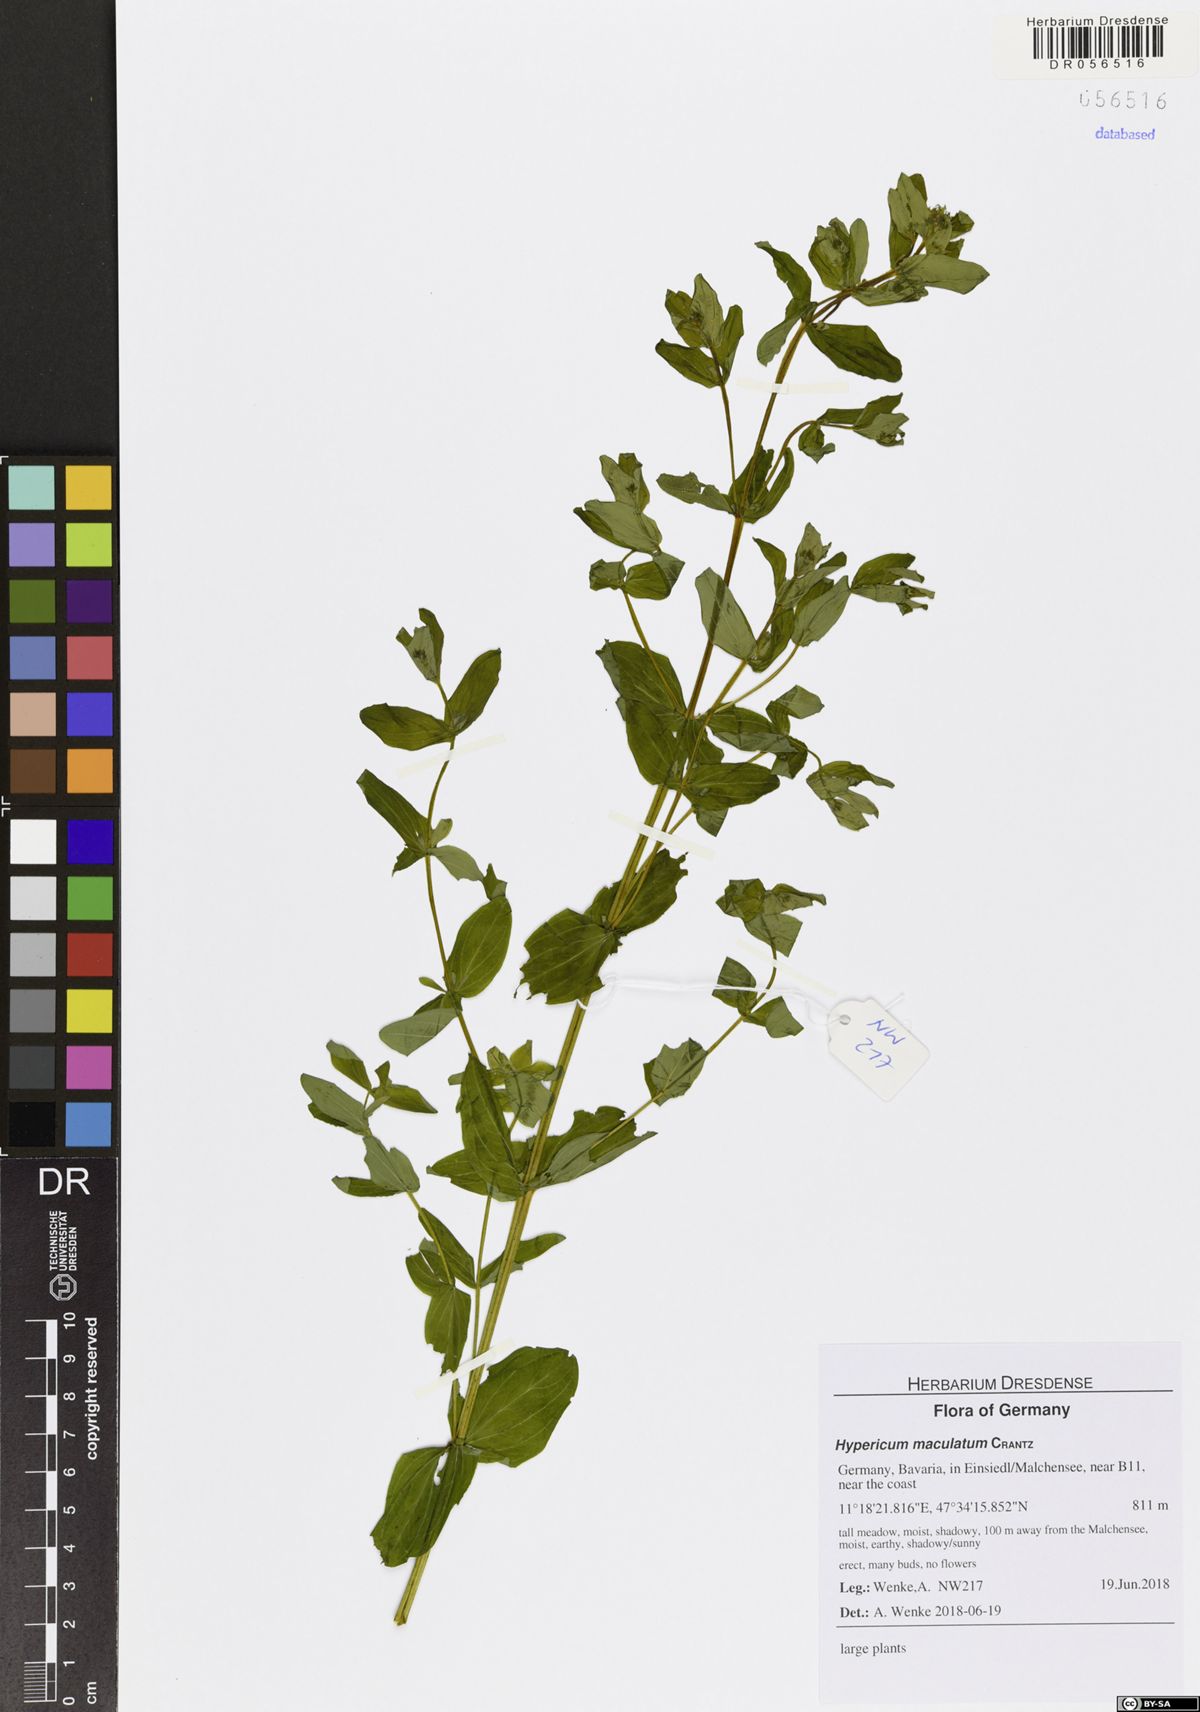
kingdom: Plantae
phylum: Tracheophyta
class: Magnoliopsida
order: Malpighiales
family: Hypericaceae
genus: Hypericum
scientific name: Hypericum maculatum
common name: Imperforate st. john's-wort
